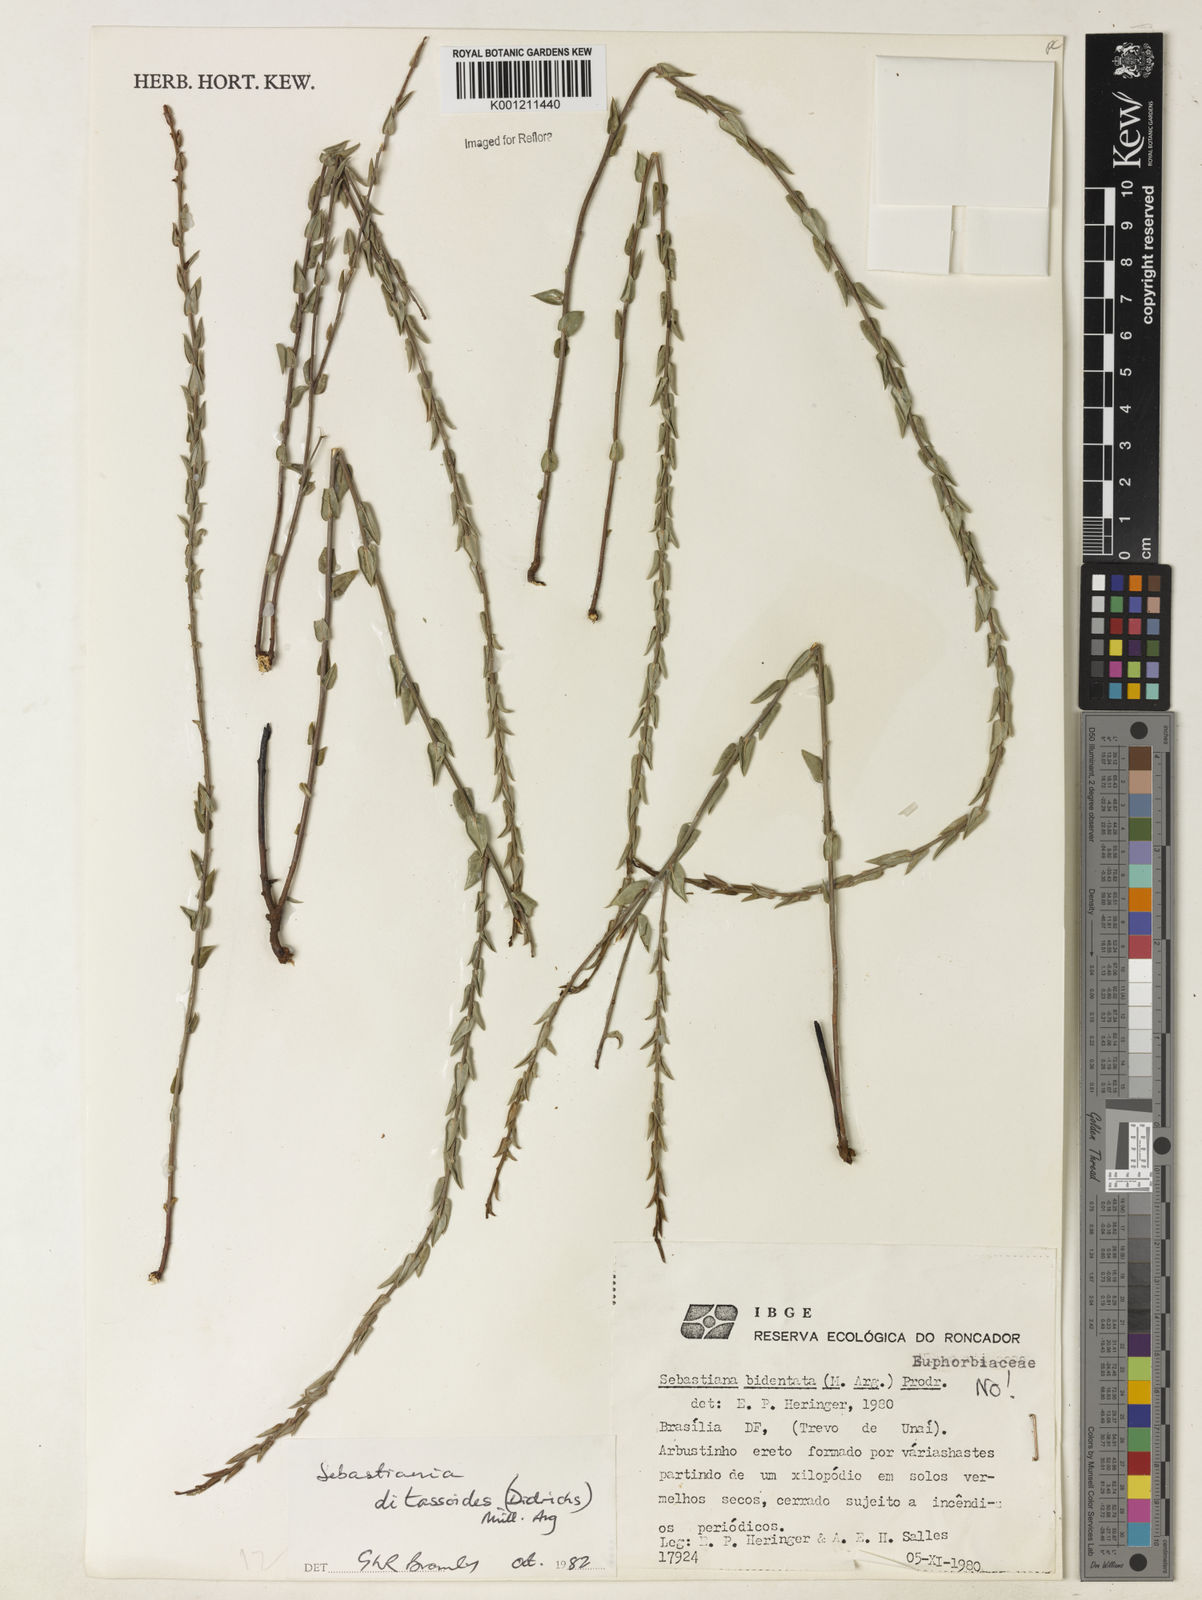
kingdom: Plantae
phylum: Tracheophyta
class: Magnoliopsida
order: Malpighiales
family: Euphorbiaceae
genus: Microstachys
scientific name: Microstachys ditassoides
